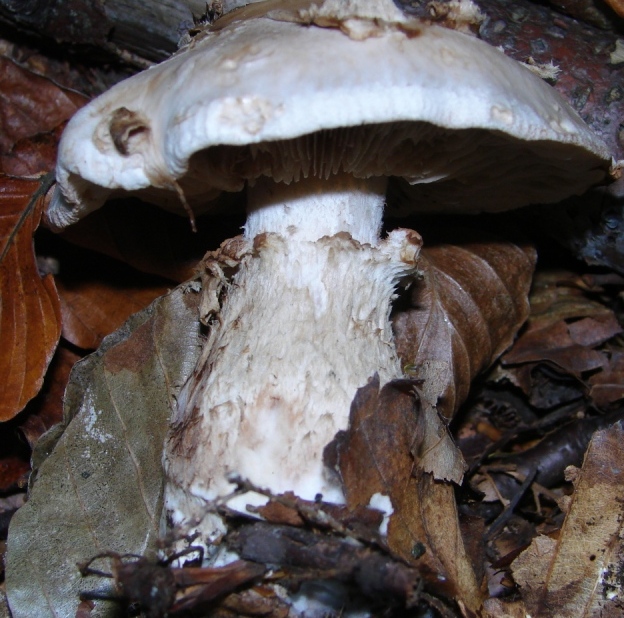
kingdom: Fungi
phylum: Basidiomycota
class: Agaricomycetes
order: Agaricales
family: Hymenogastraceae
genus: Hebeloma
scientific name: Hebeloma radicosum
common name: pælerods-tåreblad
